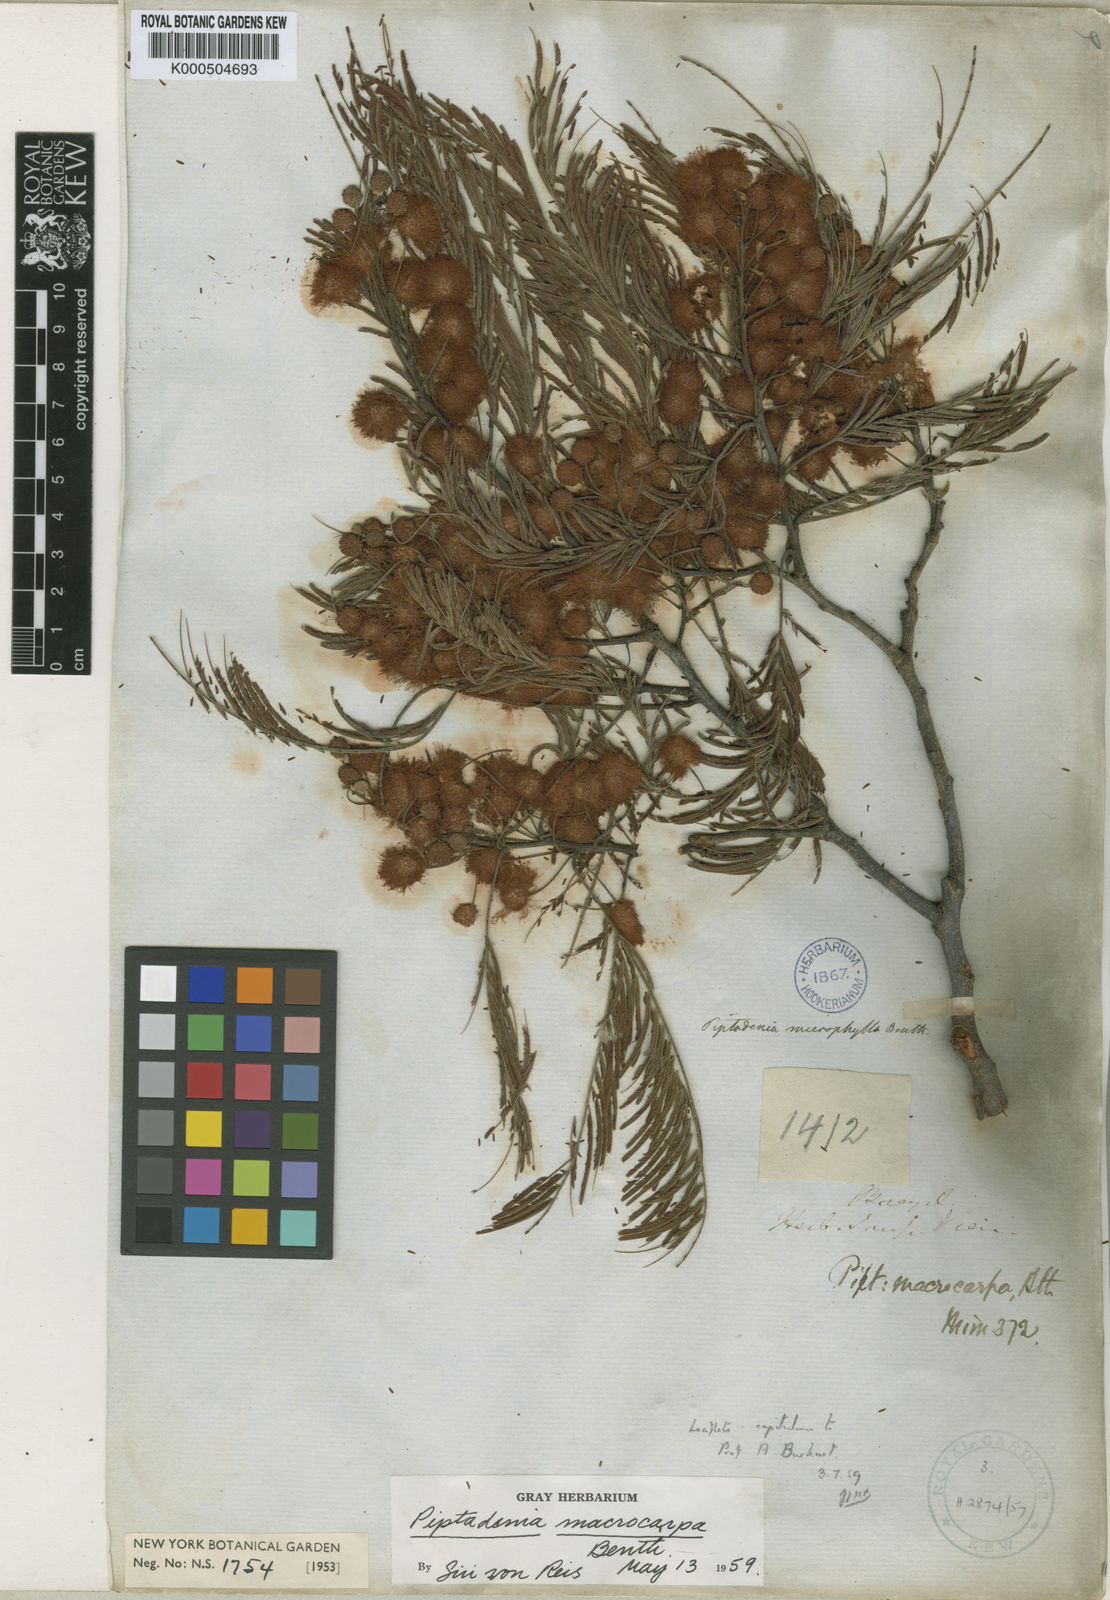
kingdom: Plantae
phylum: Tracheophyta
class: Magnoliopsida
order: Fabales
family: Fabaceae
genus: Anadenanthera
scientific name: Anadenanthera colubrina
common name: Curupay
